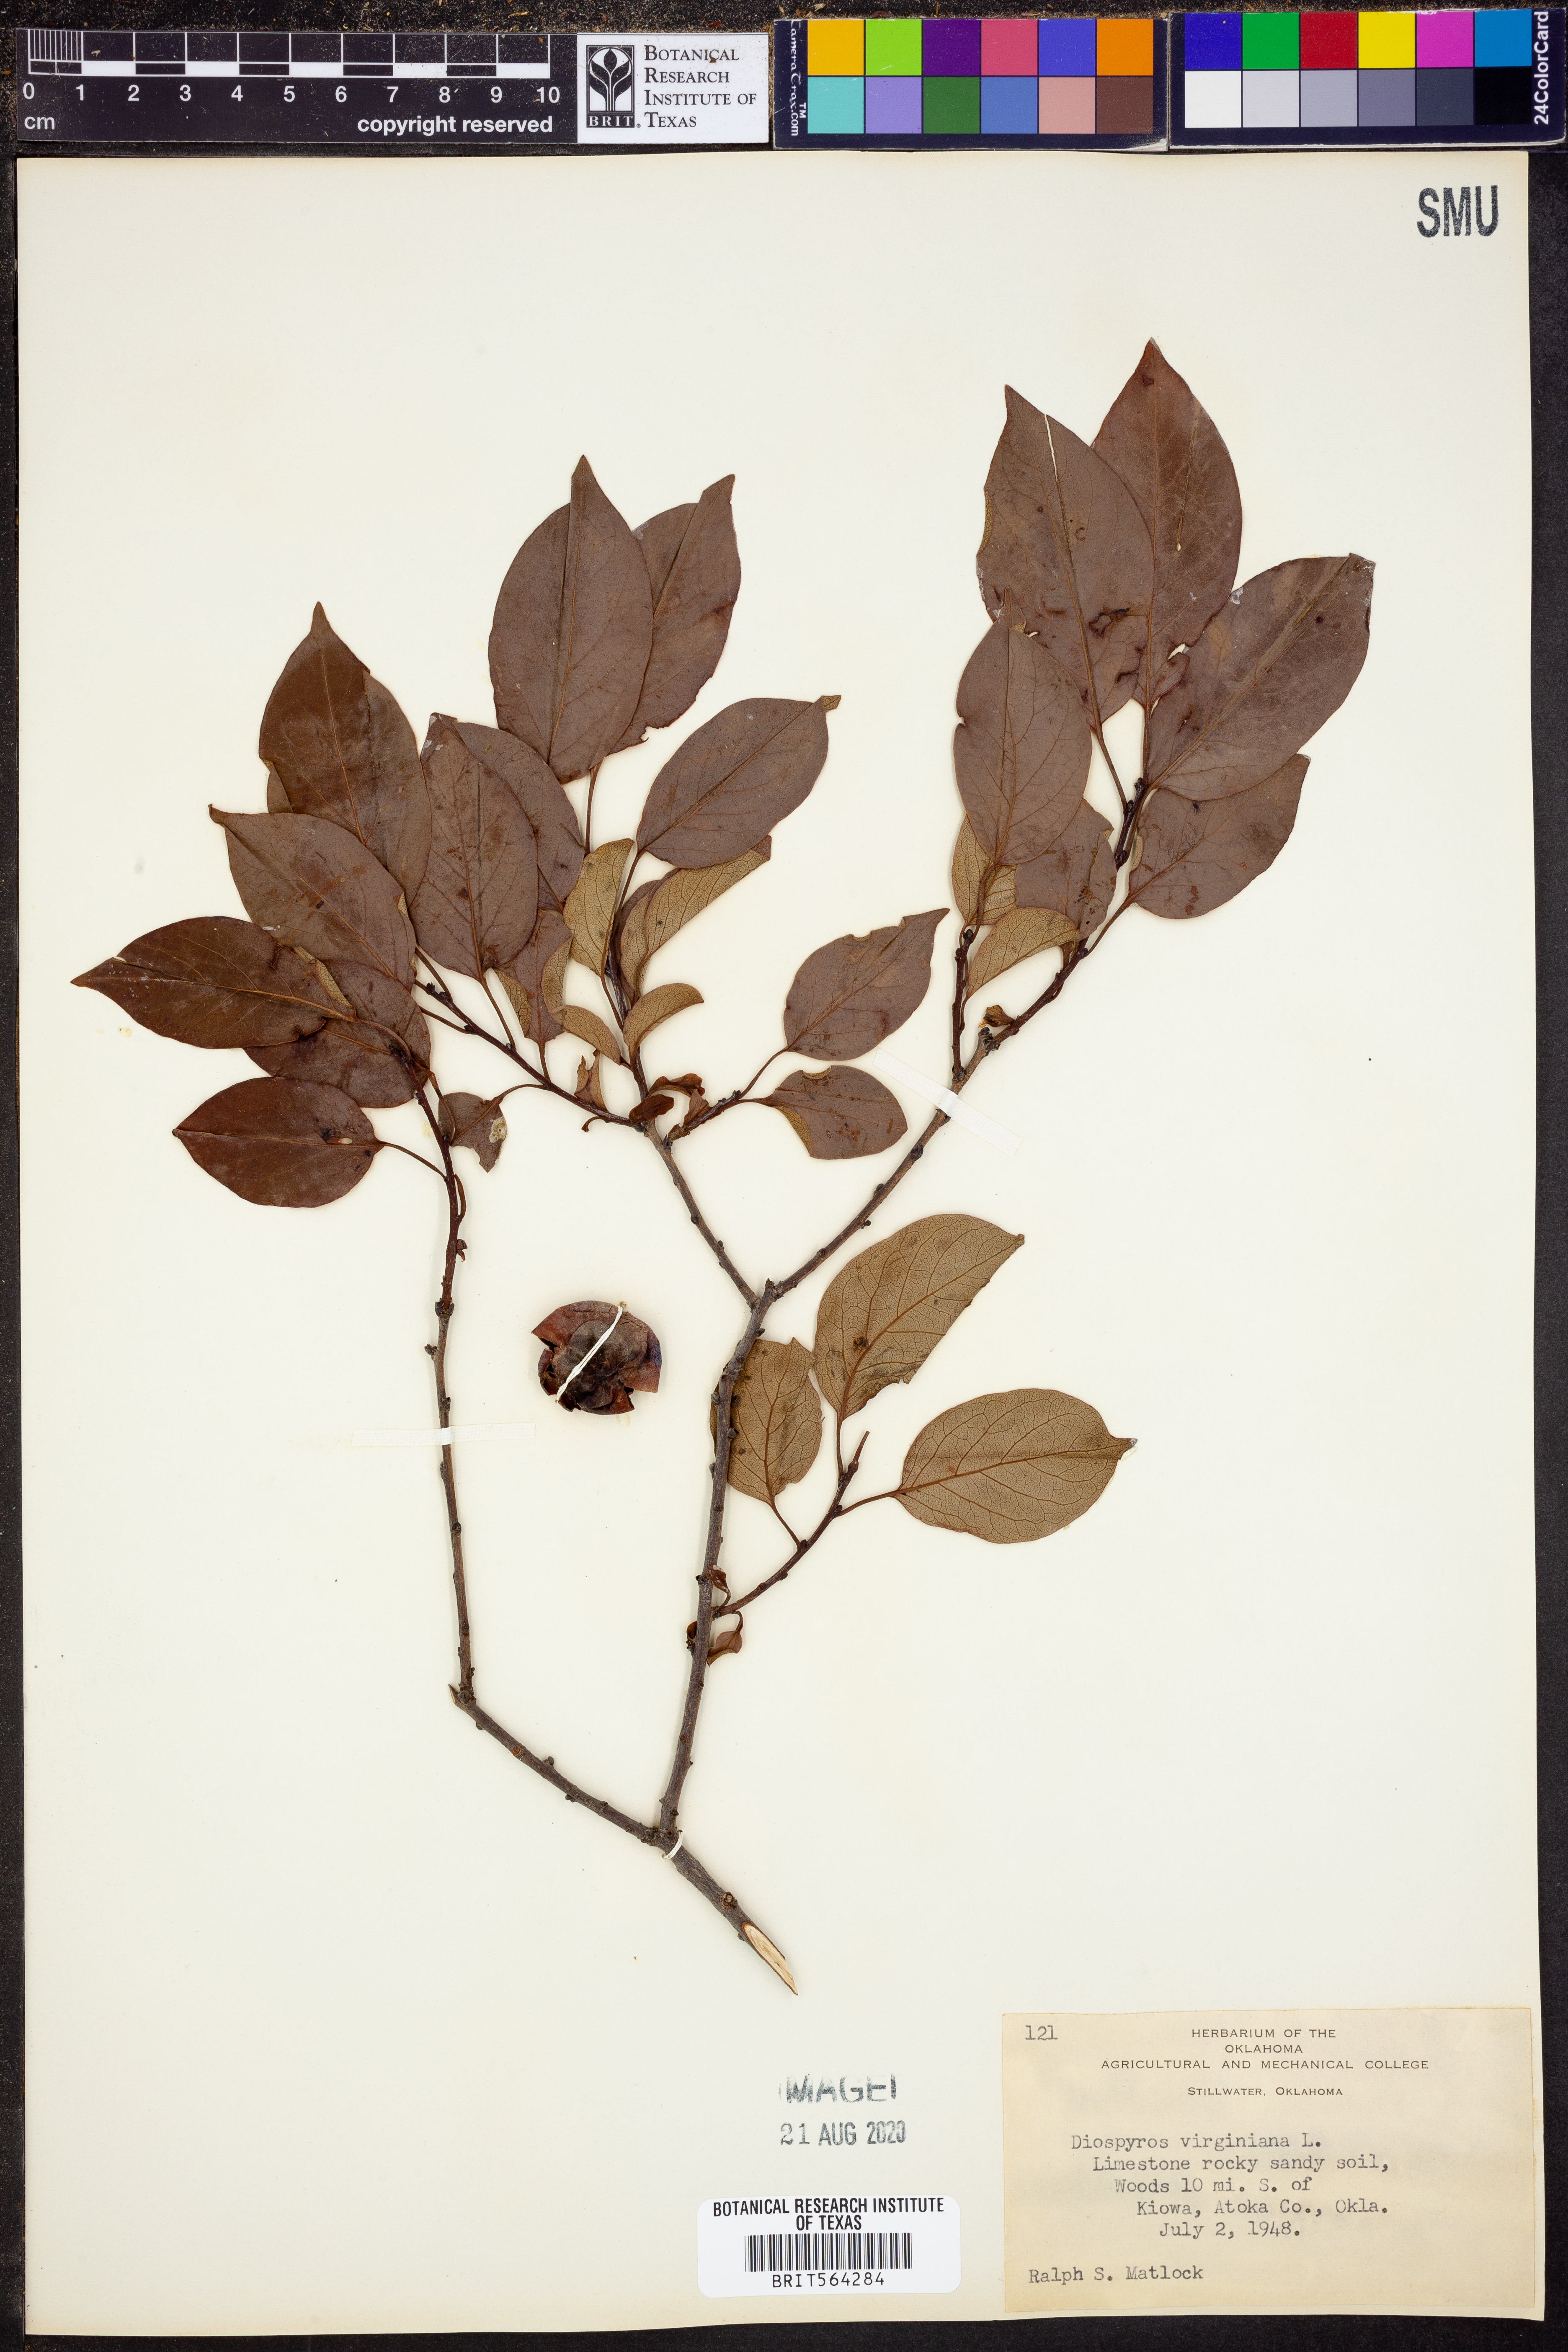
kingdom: Plantae
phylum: Tracheophyta
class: Magnoliopsida
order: Ericales
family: Ebenaceae
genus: Diospyros
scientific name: Diospyros virginiana
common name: Persimmon
